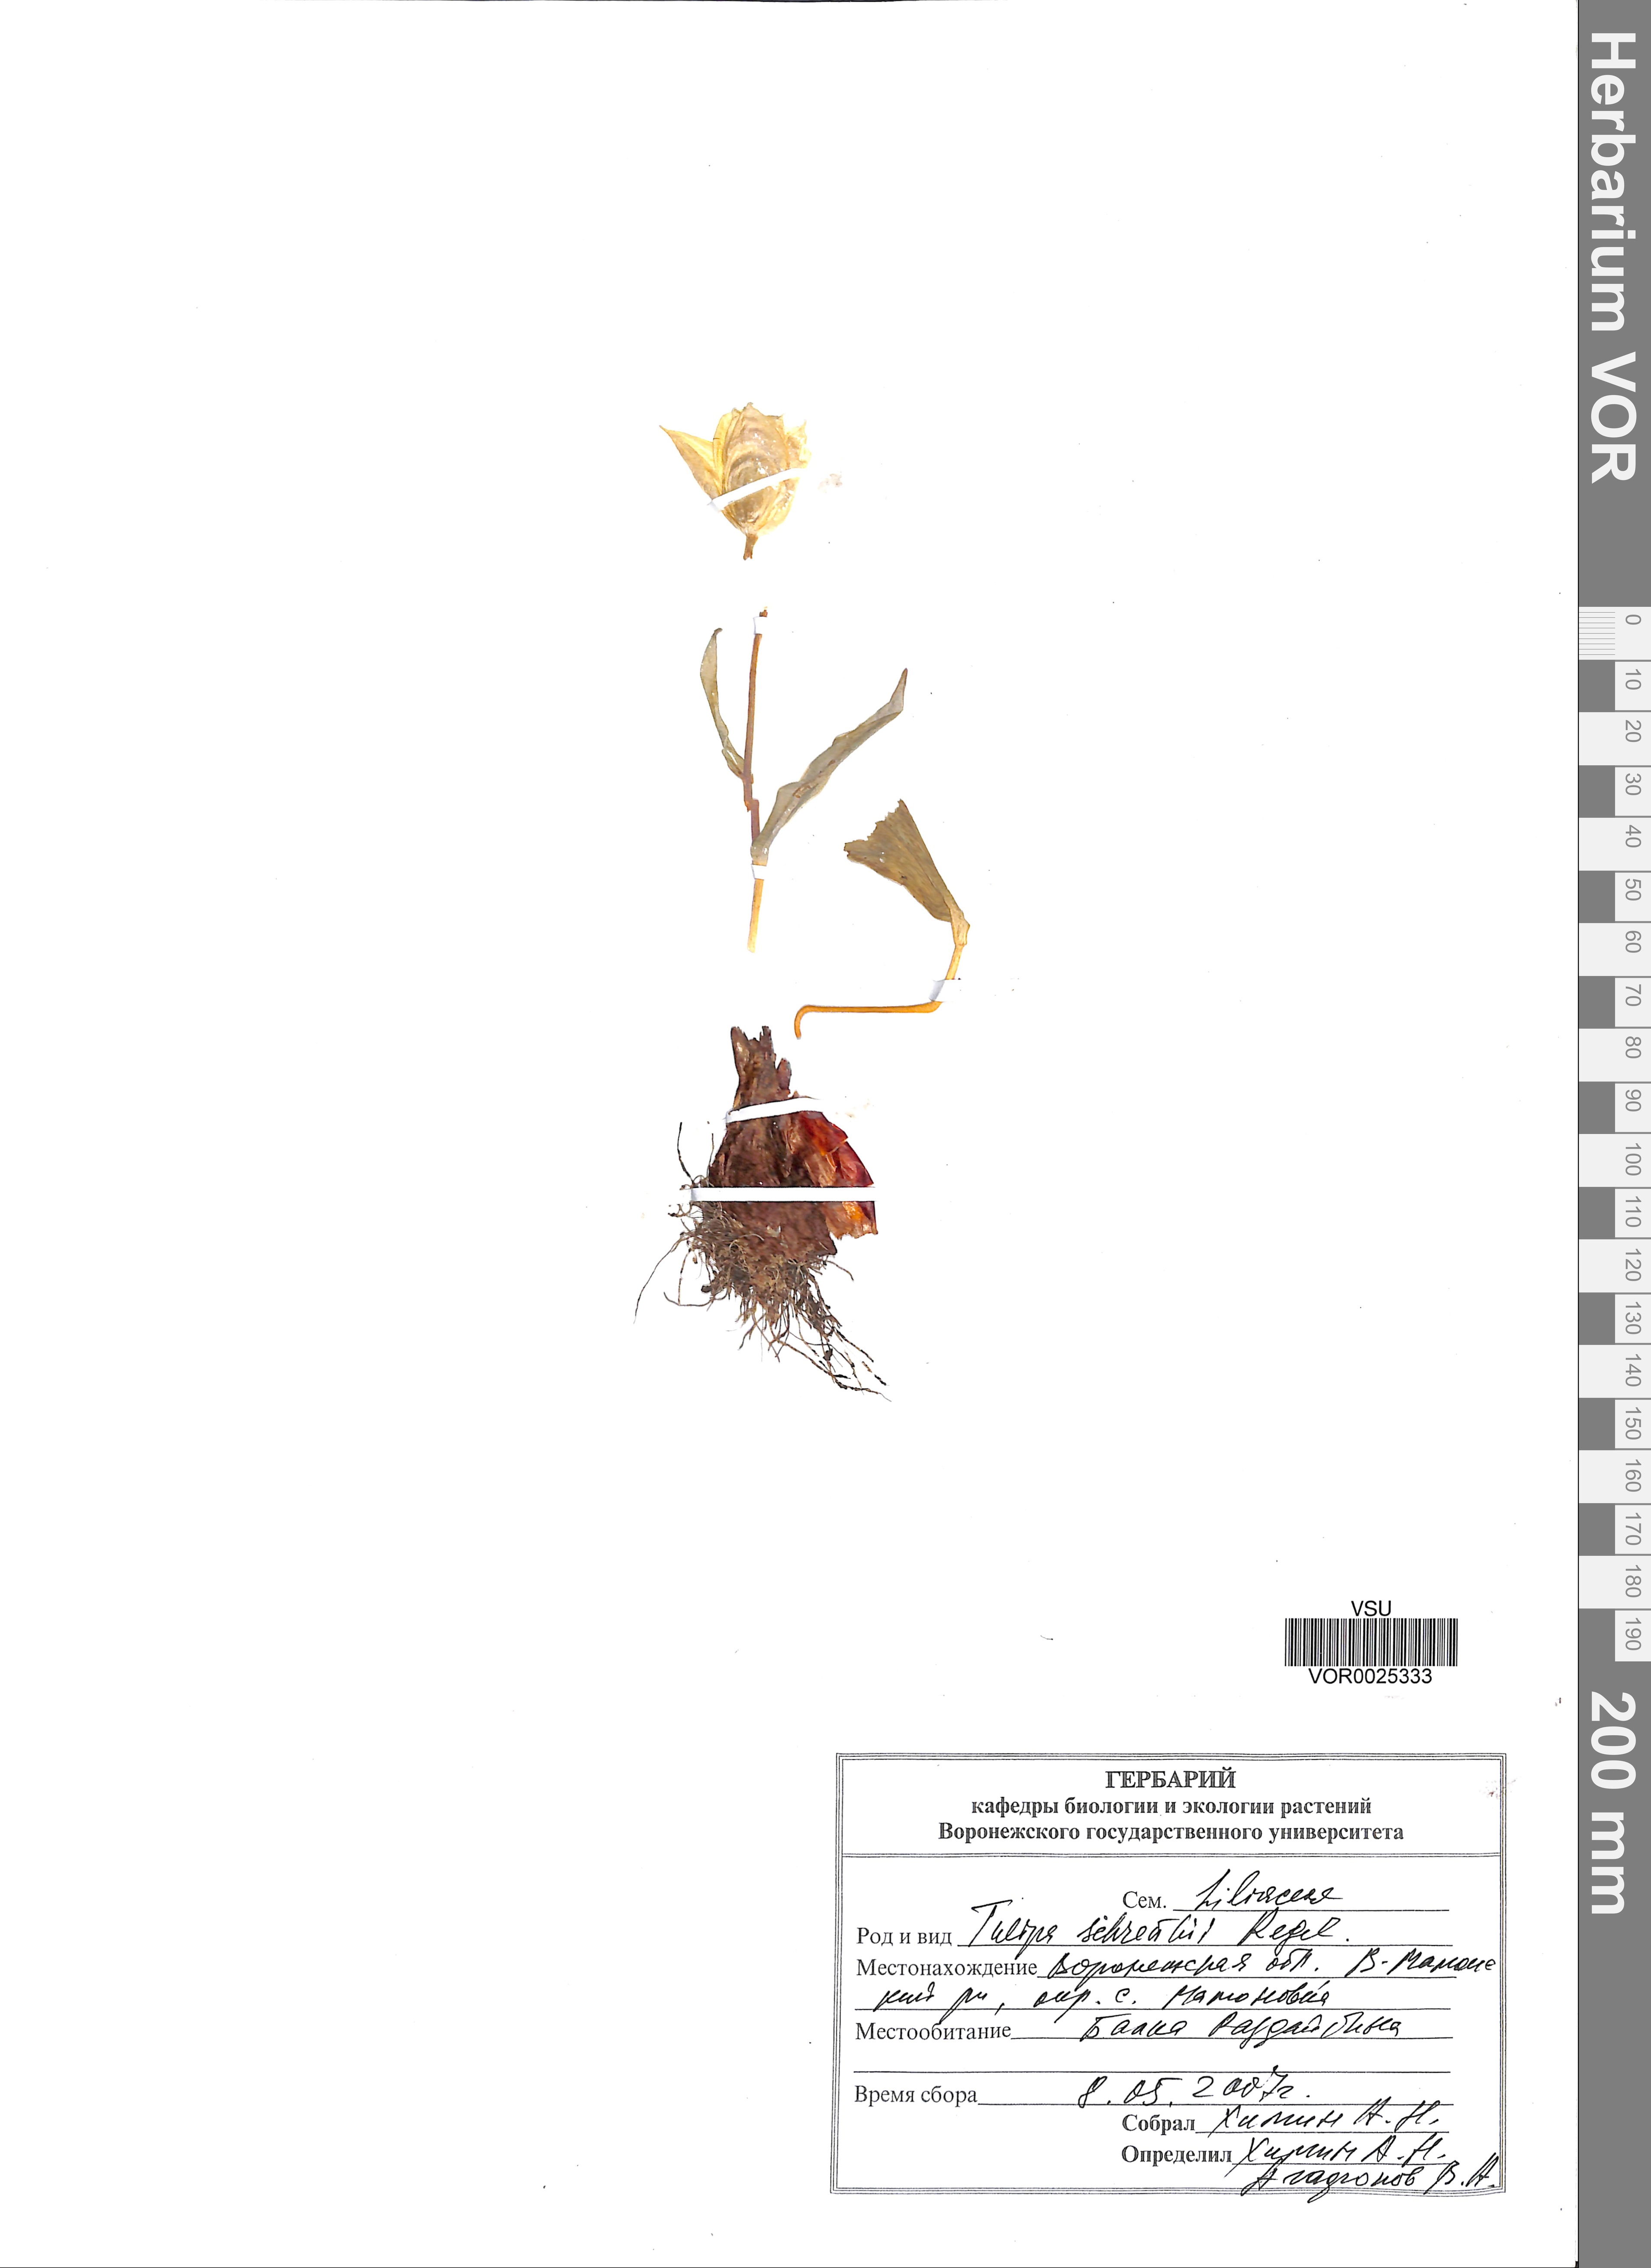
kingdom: Plantae
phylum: Tracheophyta
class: Liliopsida
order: Liliales
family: Liliaceae
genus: Tulipa
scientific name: Tulipa suaveolens
